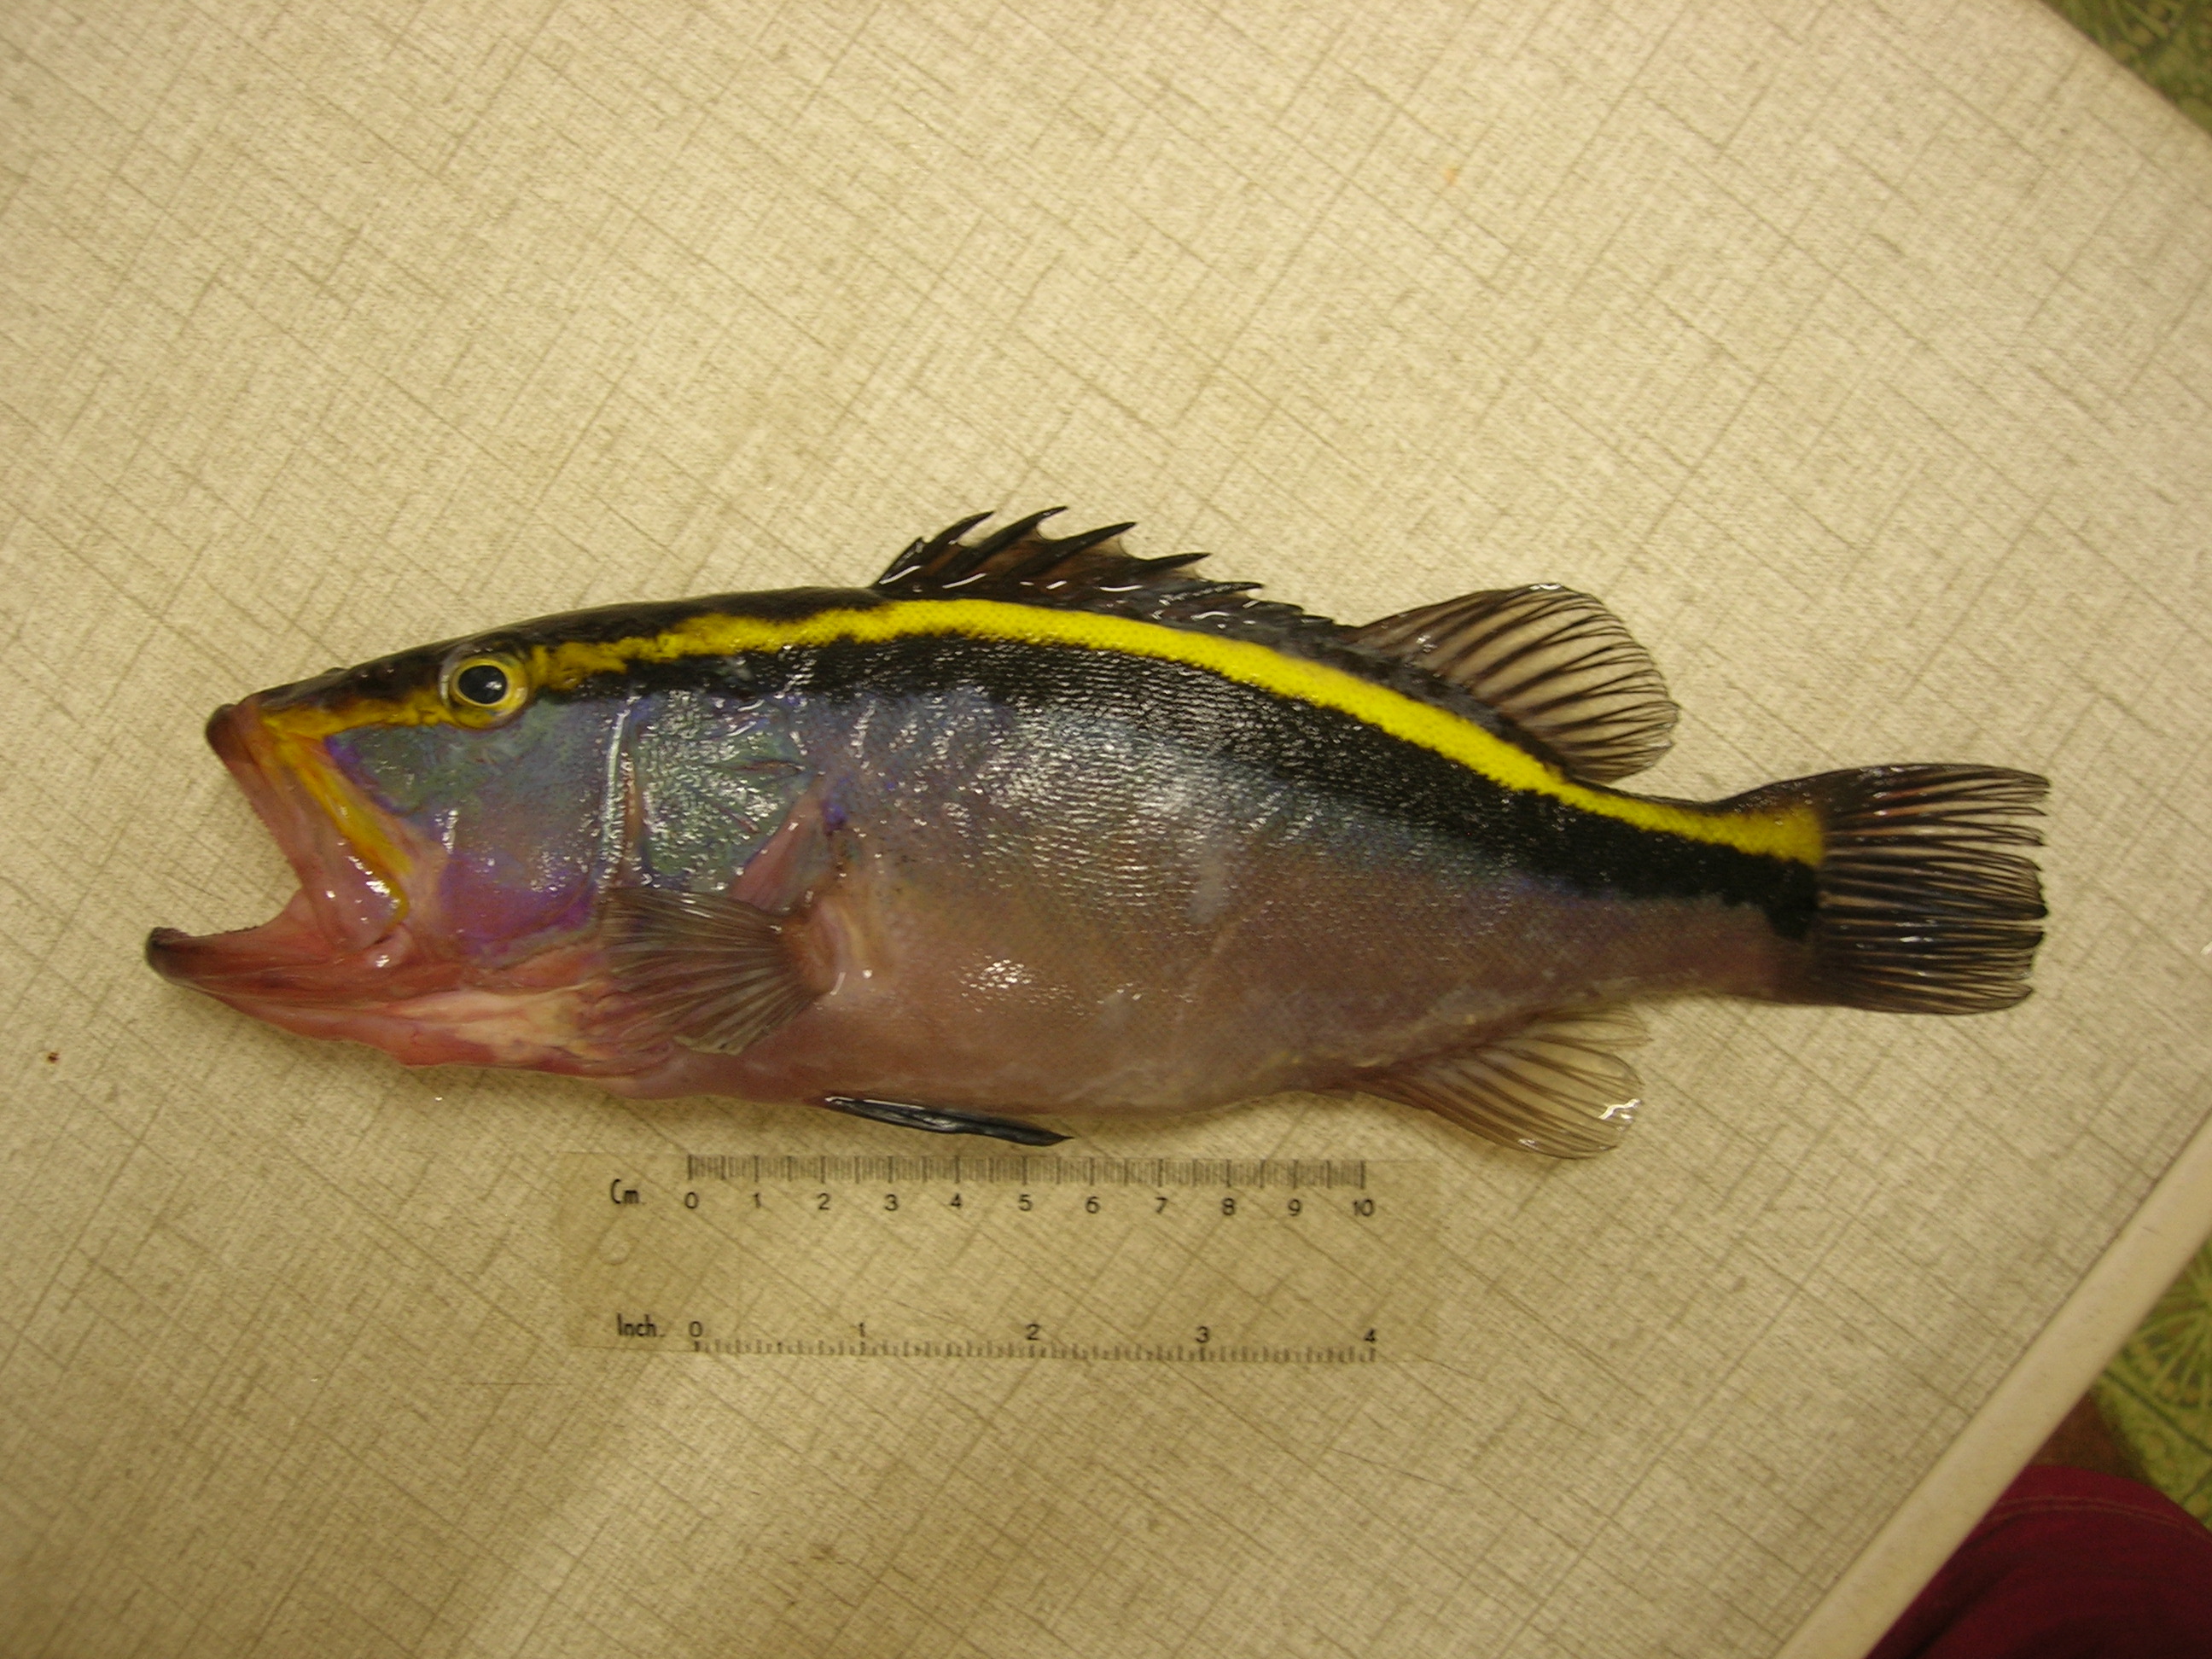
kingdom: Animalia
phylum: Chordata
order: Perciformes
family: Serranidae
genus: Aulacocephalus
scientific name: Aulacocephalus temminckii
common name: Goldribbon soapfish
